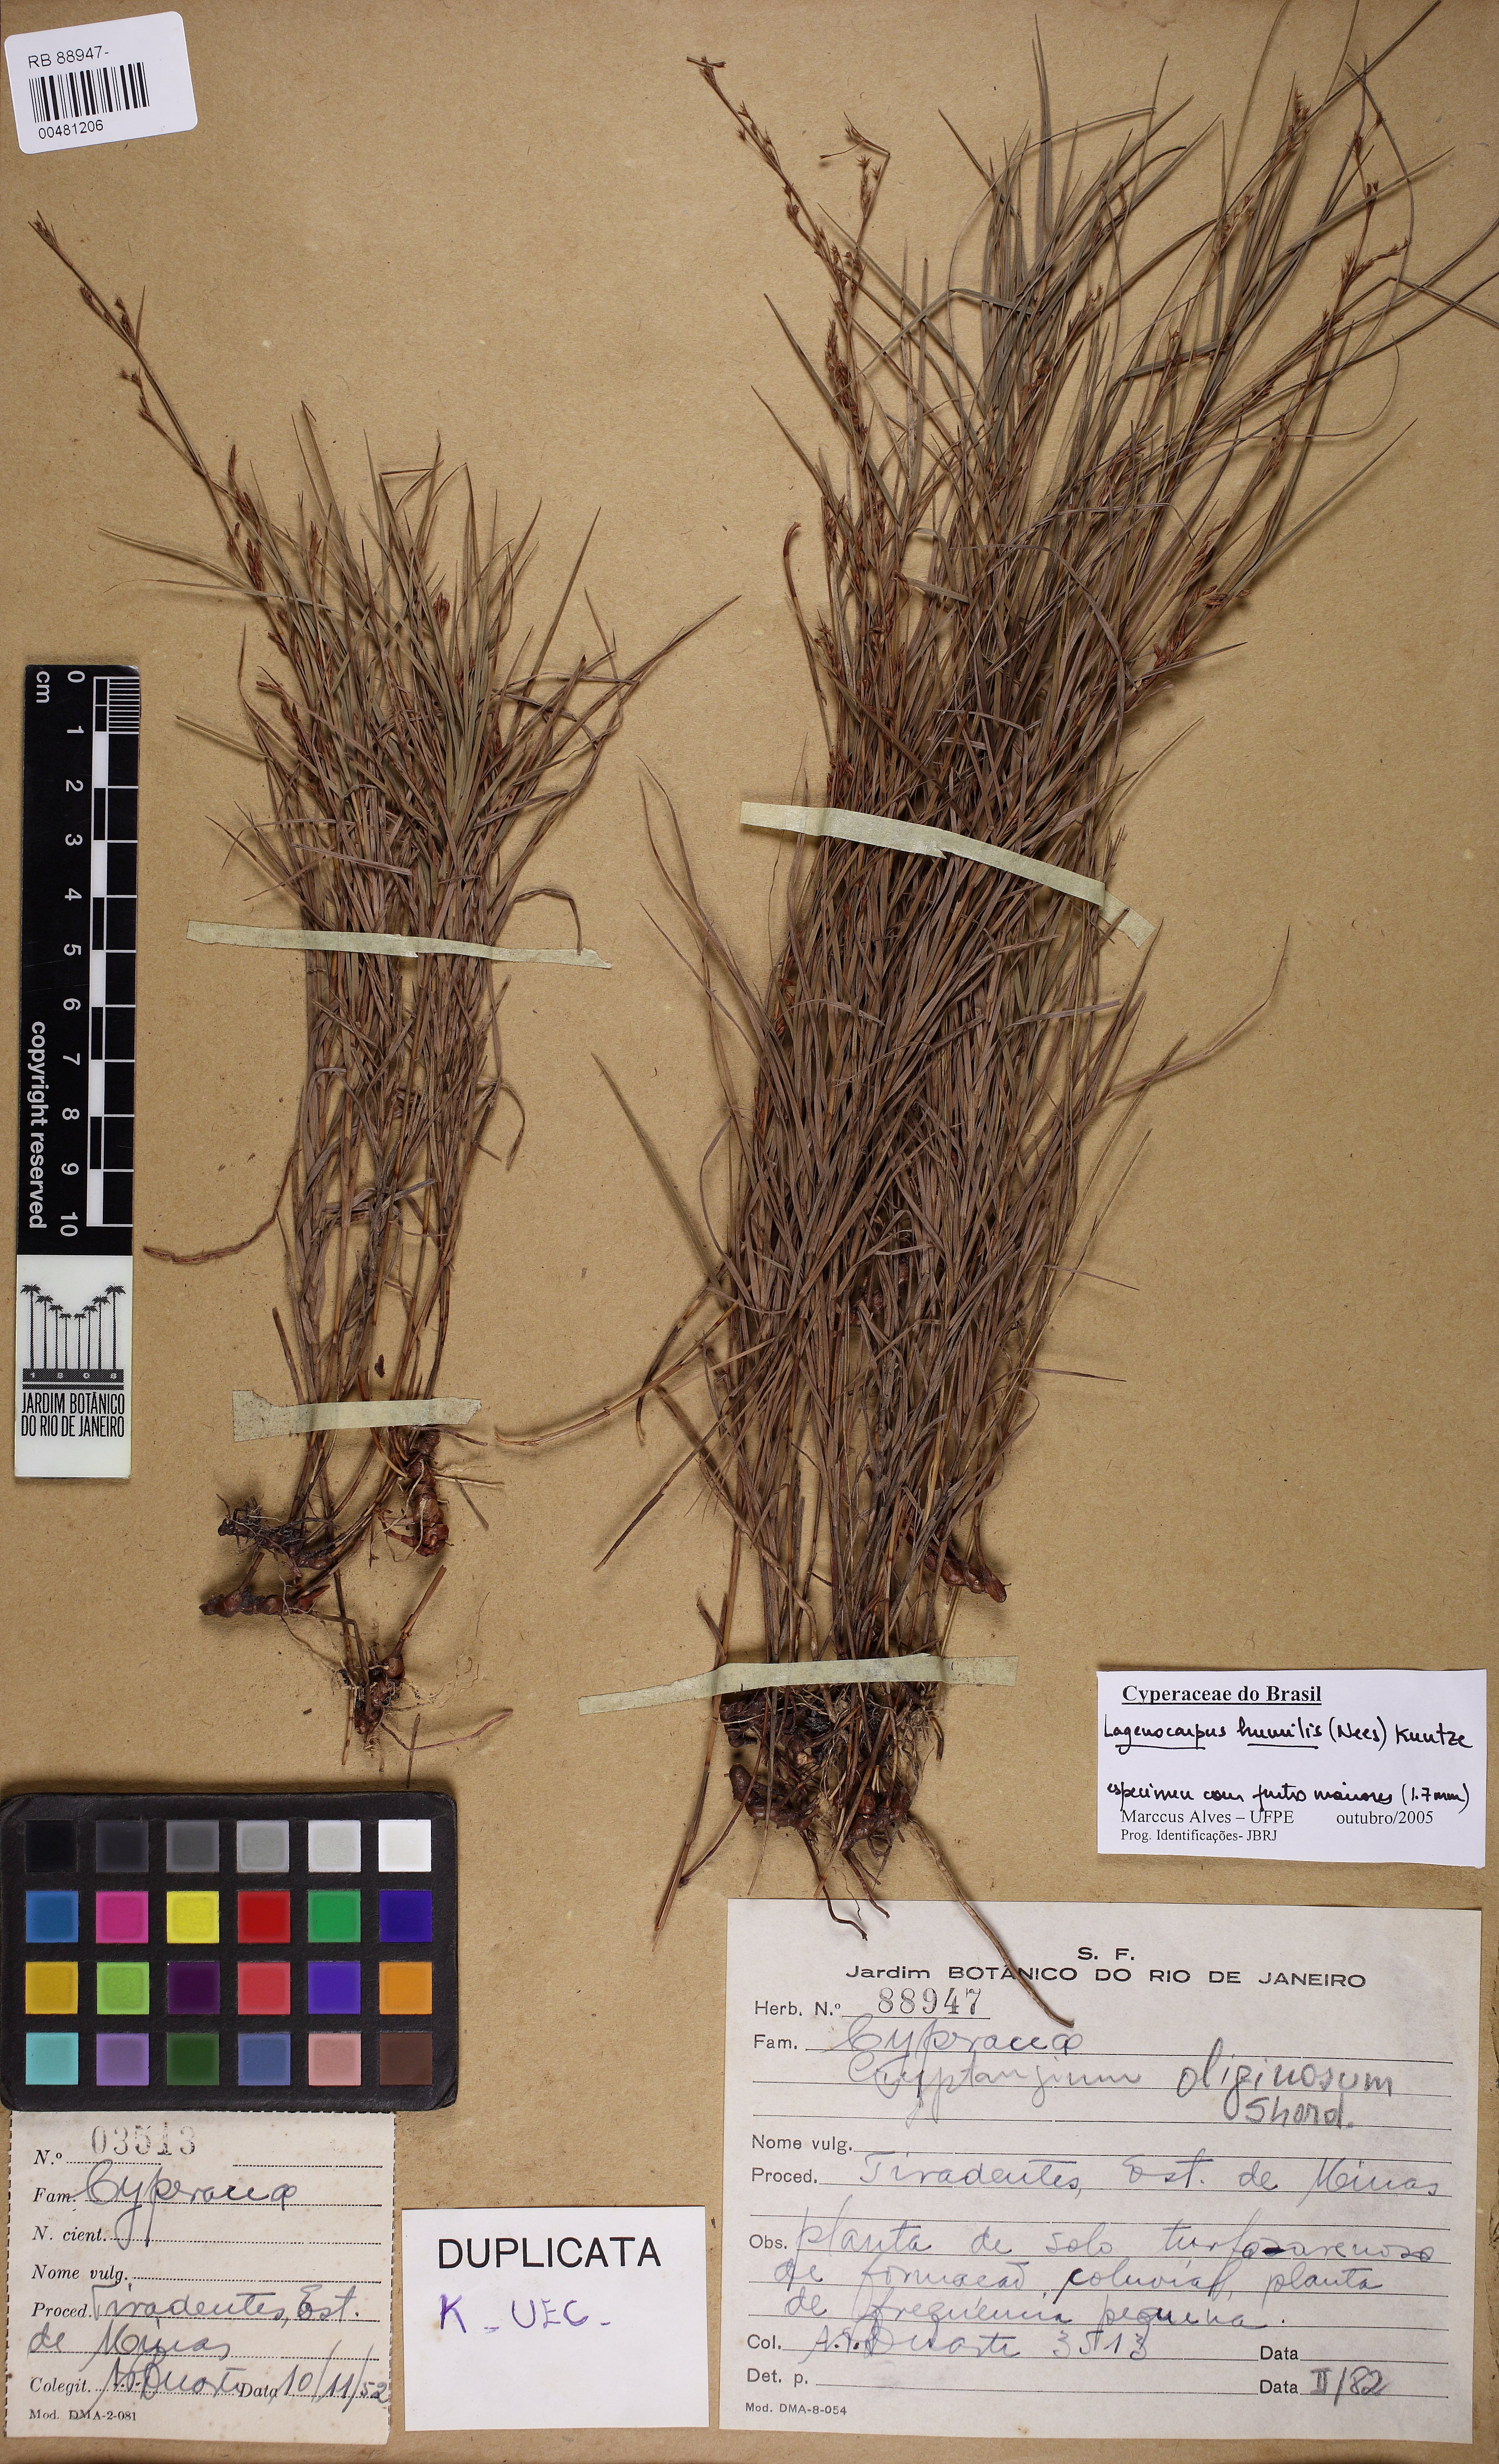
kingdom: Plantae
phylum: Tracheophyta
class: Liliopsida
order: Poales
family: Cyperaceae
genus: Krenakia
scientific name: Krenakia humilis
